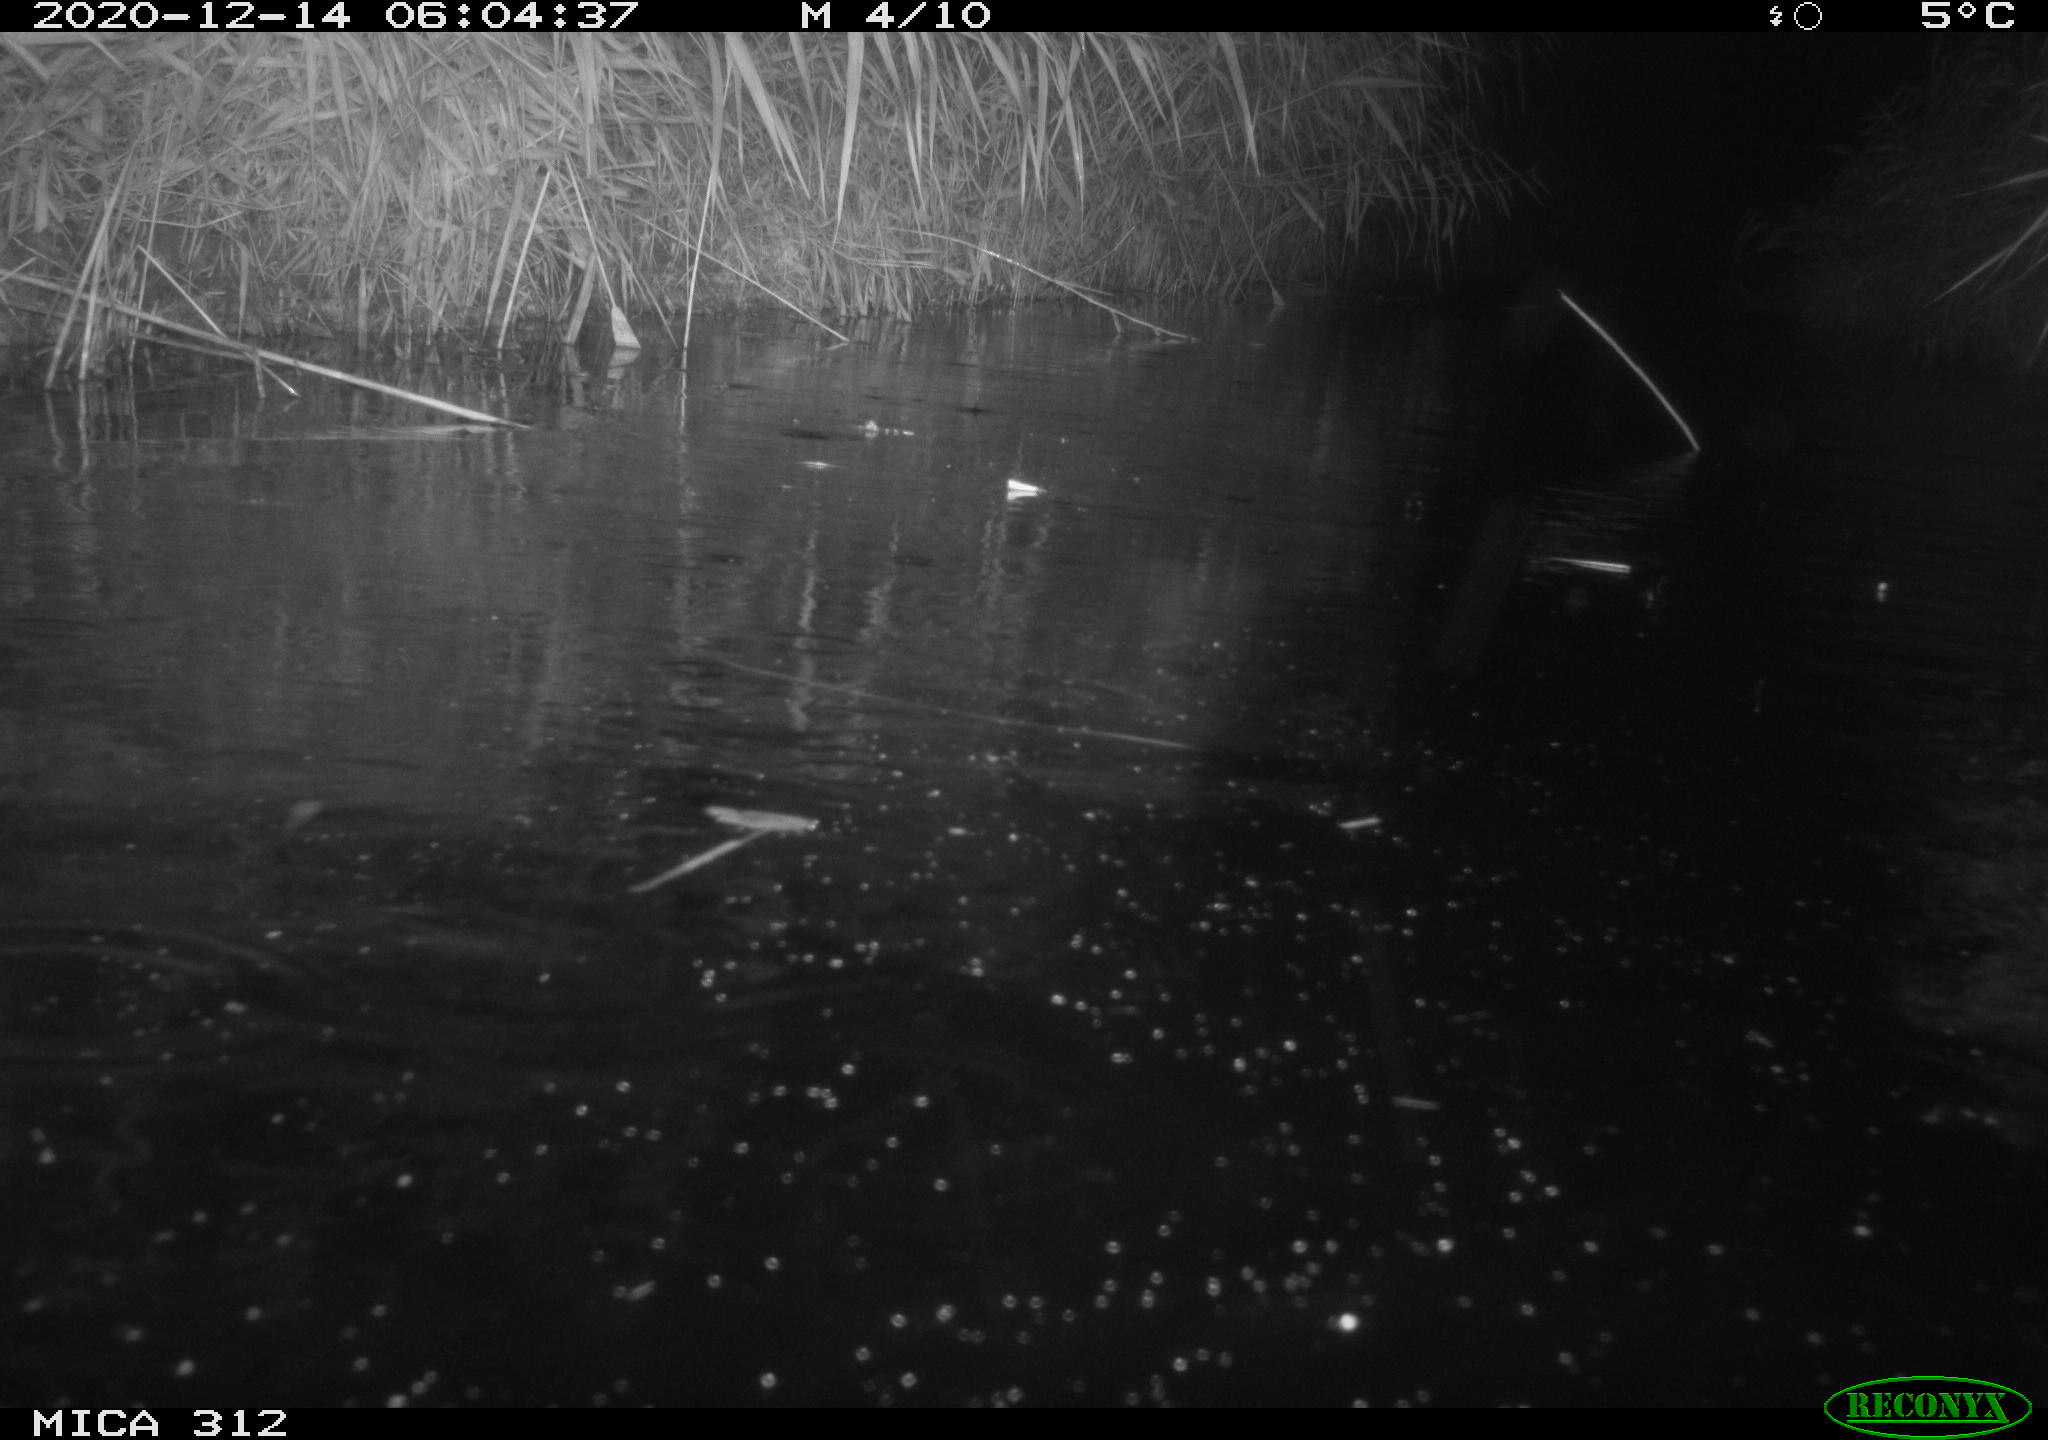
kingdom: Animalia
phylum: Chordata
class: Mammalia
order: Rodentia
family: Muridae
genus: Rattus
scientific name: Rattus norvegicus
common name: Brown rat
